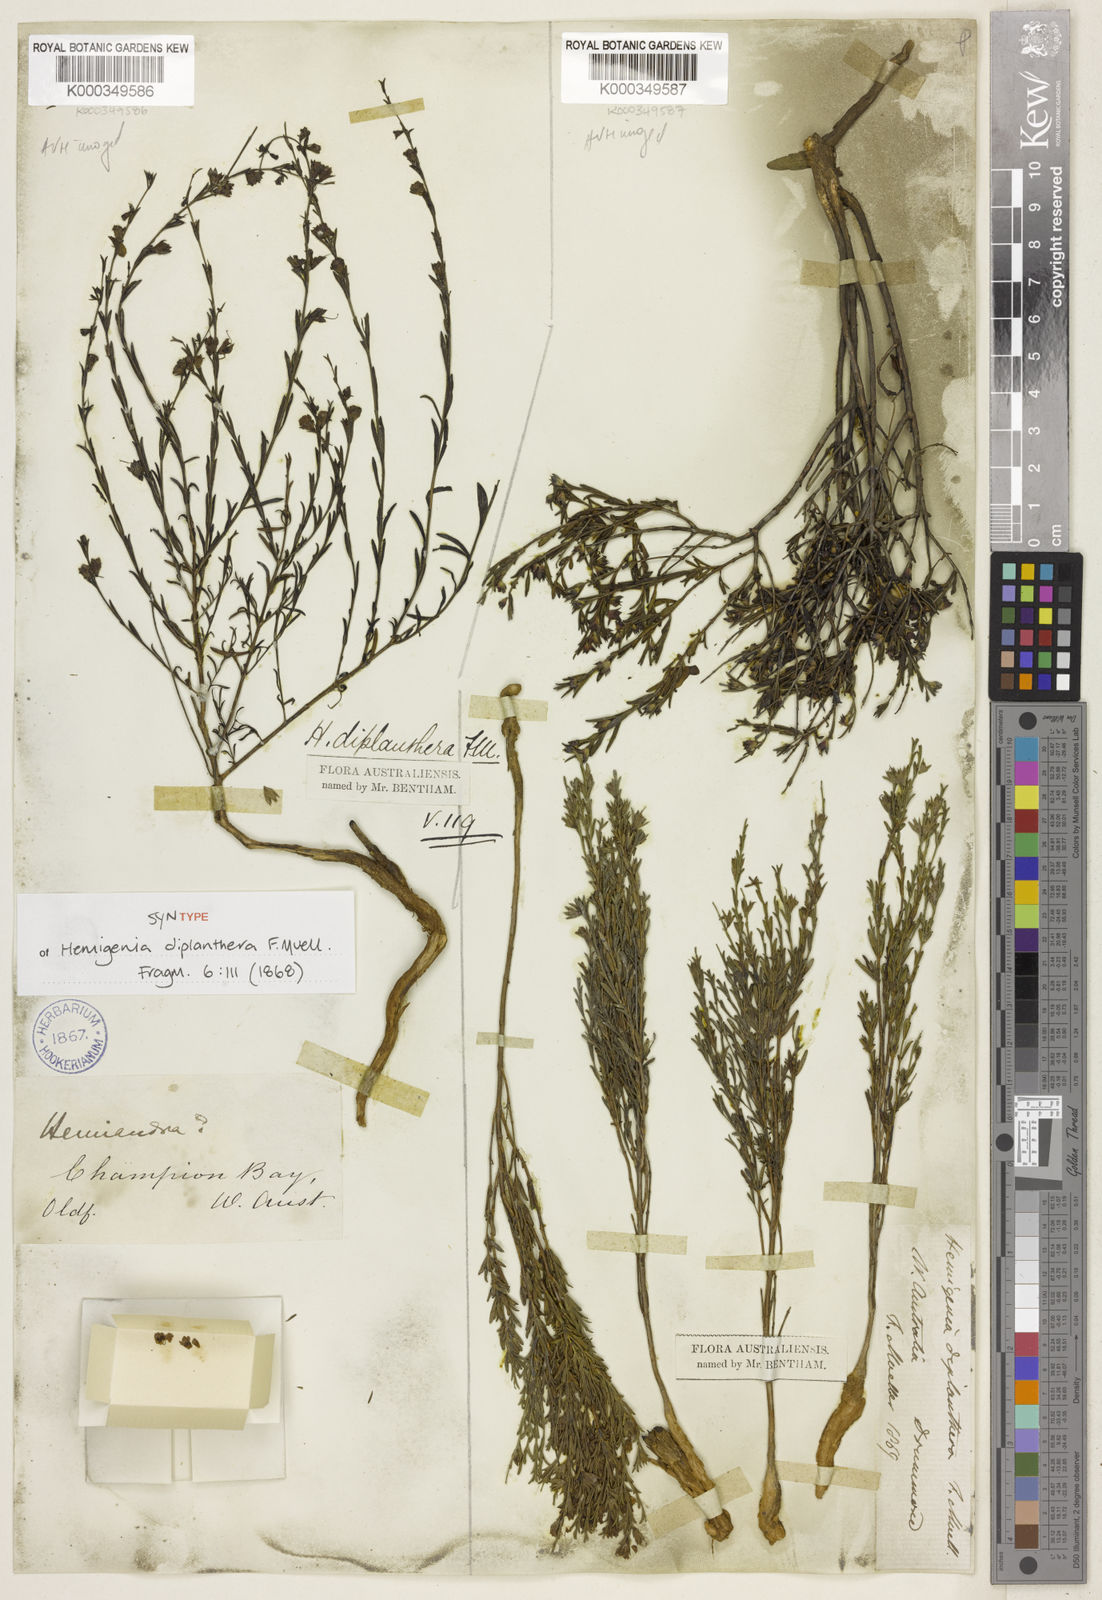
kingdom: Plantae
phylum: Tracheophyta
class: Magnoliopsida
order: Lamiales
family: Lamiaceae
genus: Hemigenia
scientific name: Hemigenia diplanthera
